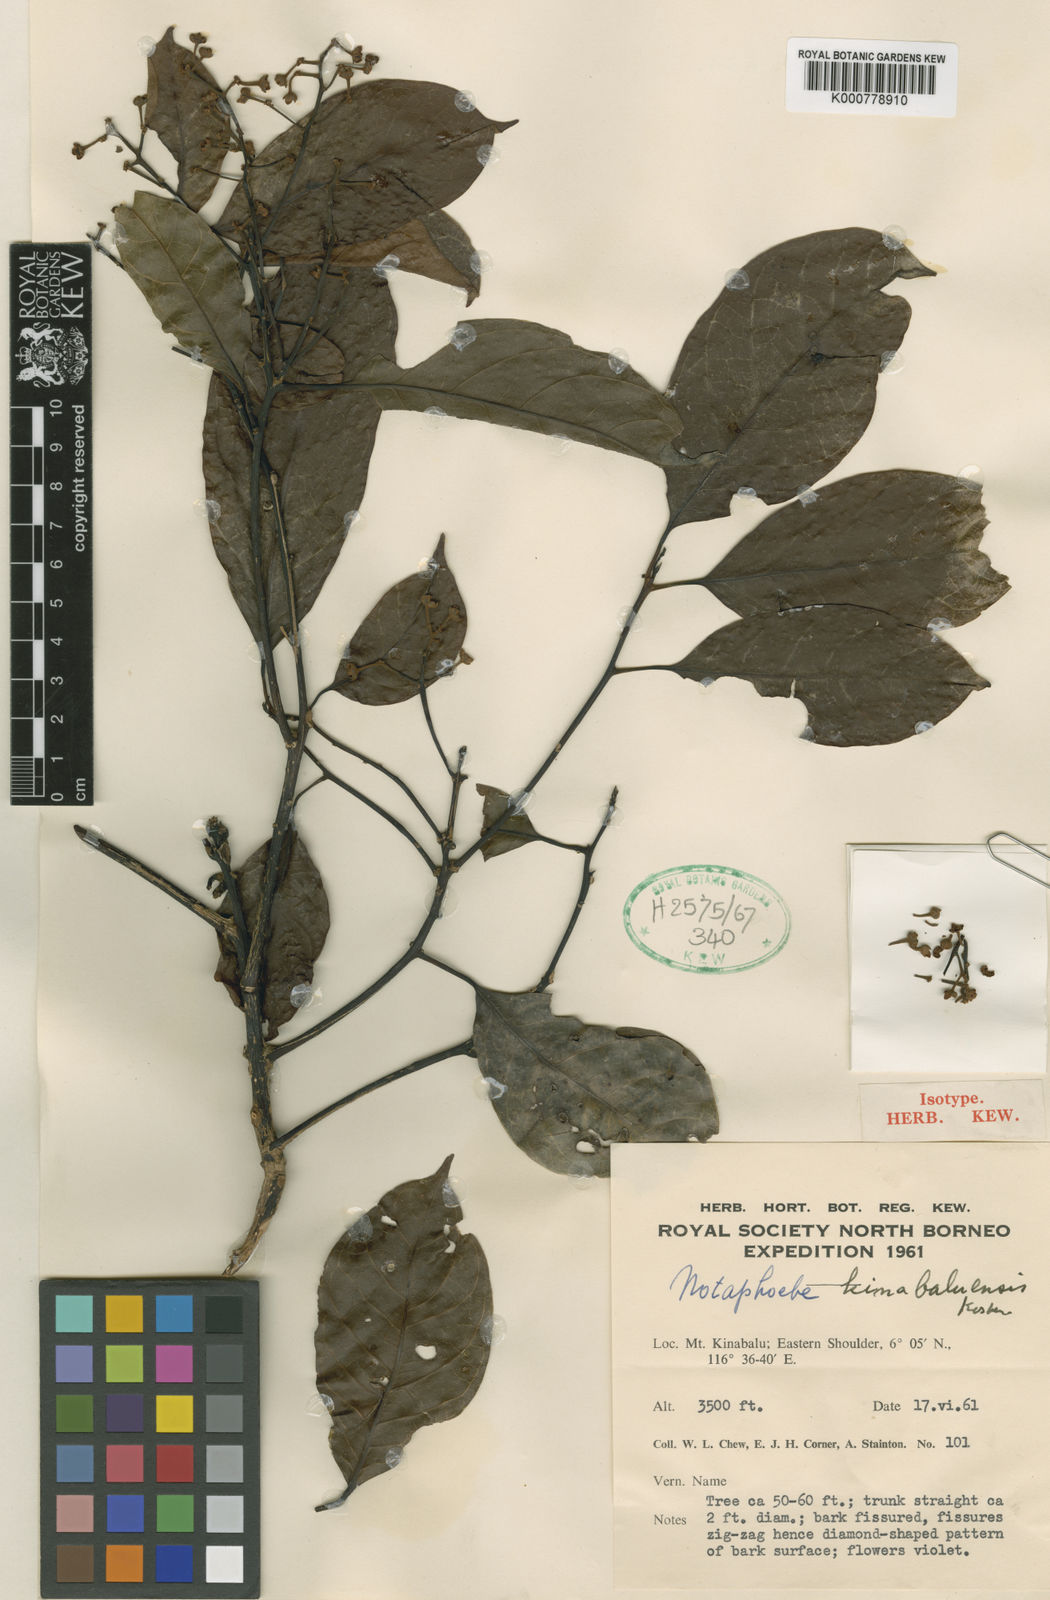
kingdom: Plantae
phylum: Tracheophyta
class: Magnoliopsida
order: Laurales
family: Lauraceae
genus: Nothaphoebe
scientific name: Nothaphoebe
